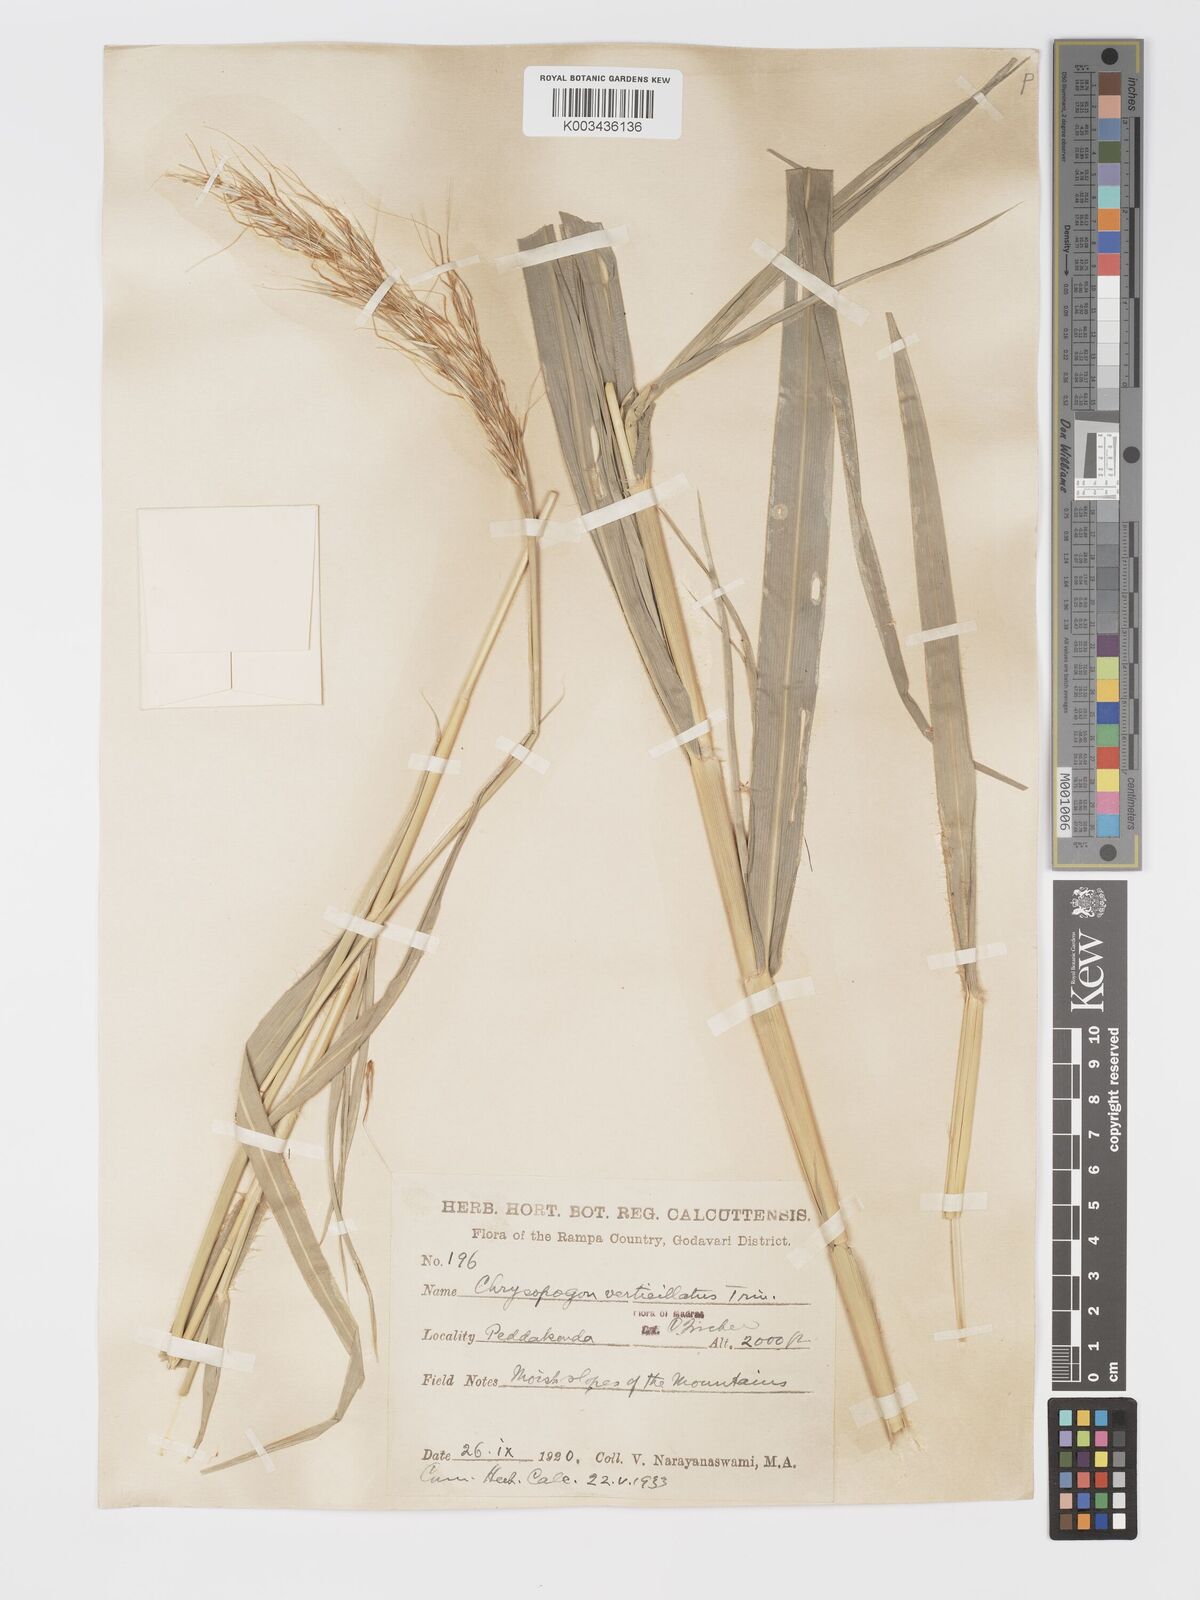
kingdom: Plantae
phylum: Tracheophyta
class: Liliopsida
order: Poales
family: Poaceae
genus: Chrysopogon
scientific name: Chrysopogon verticillatus
